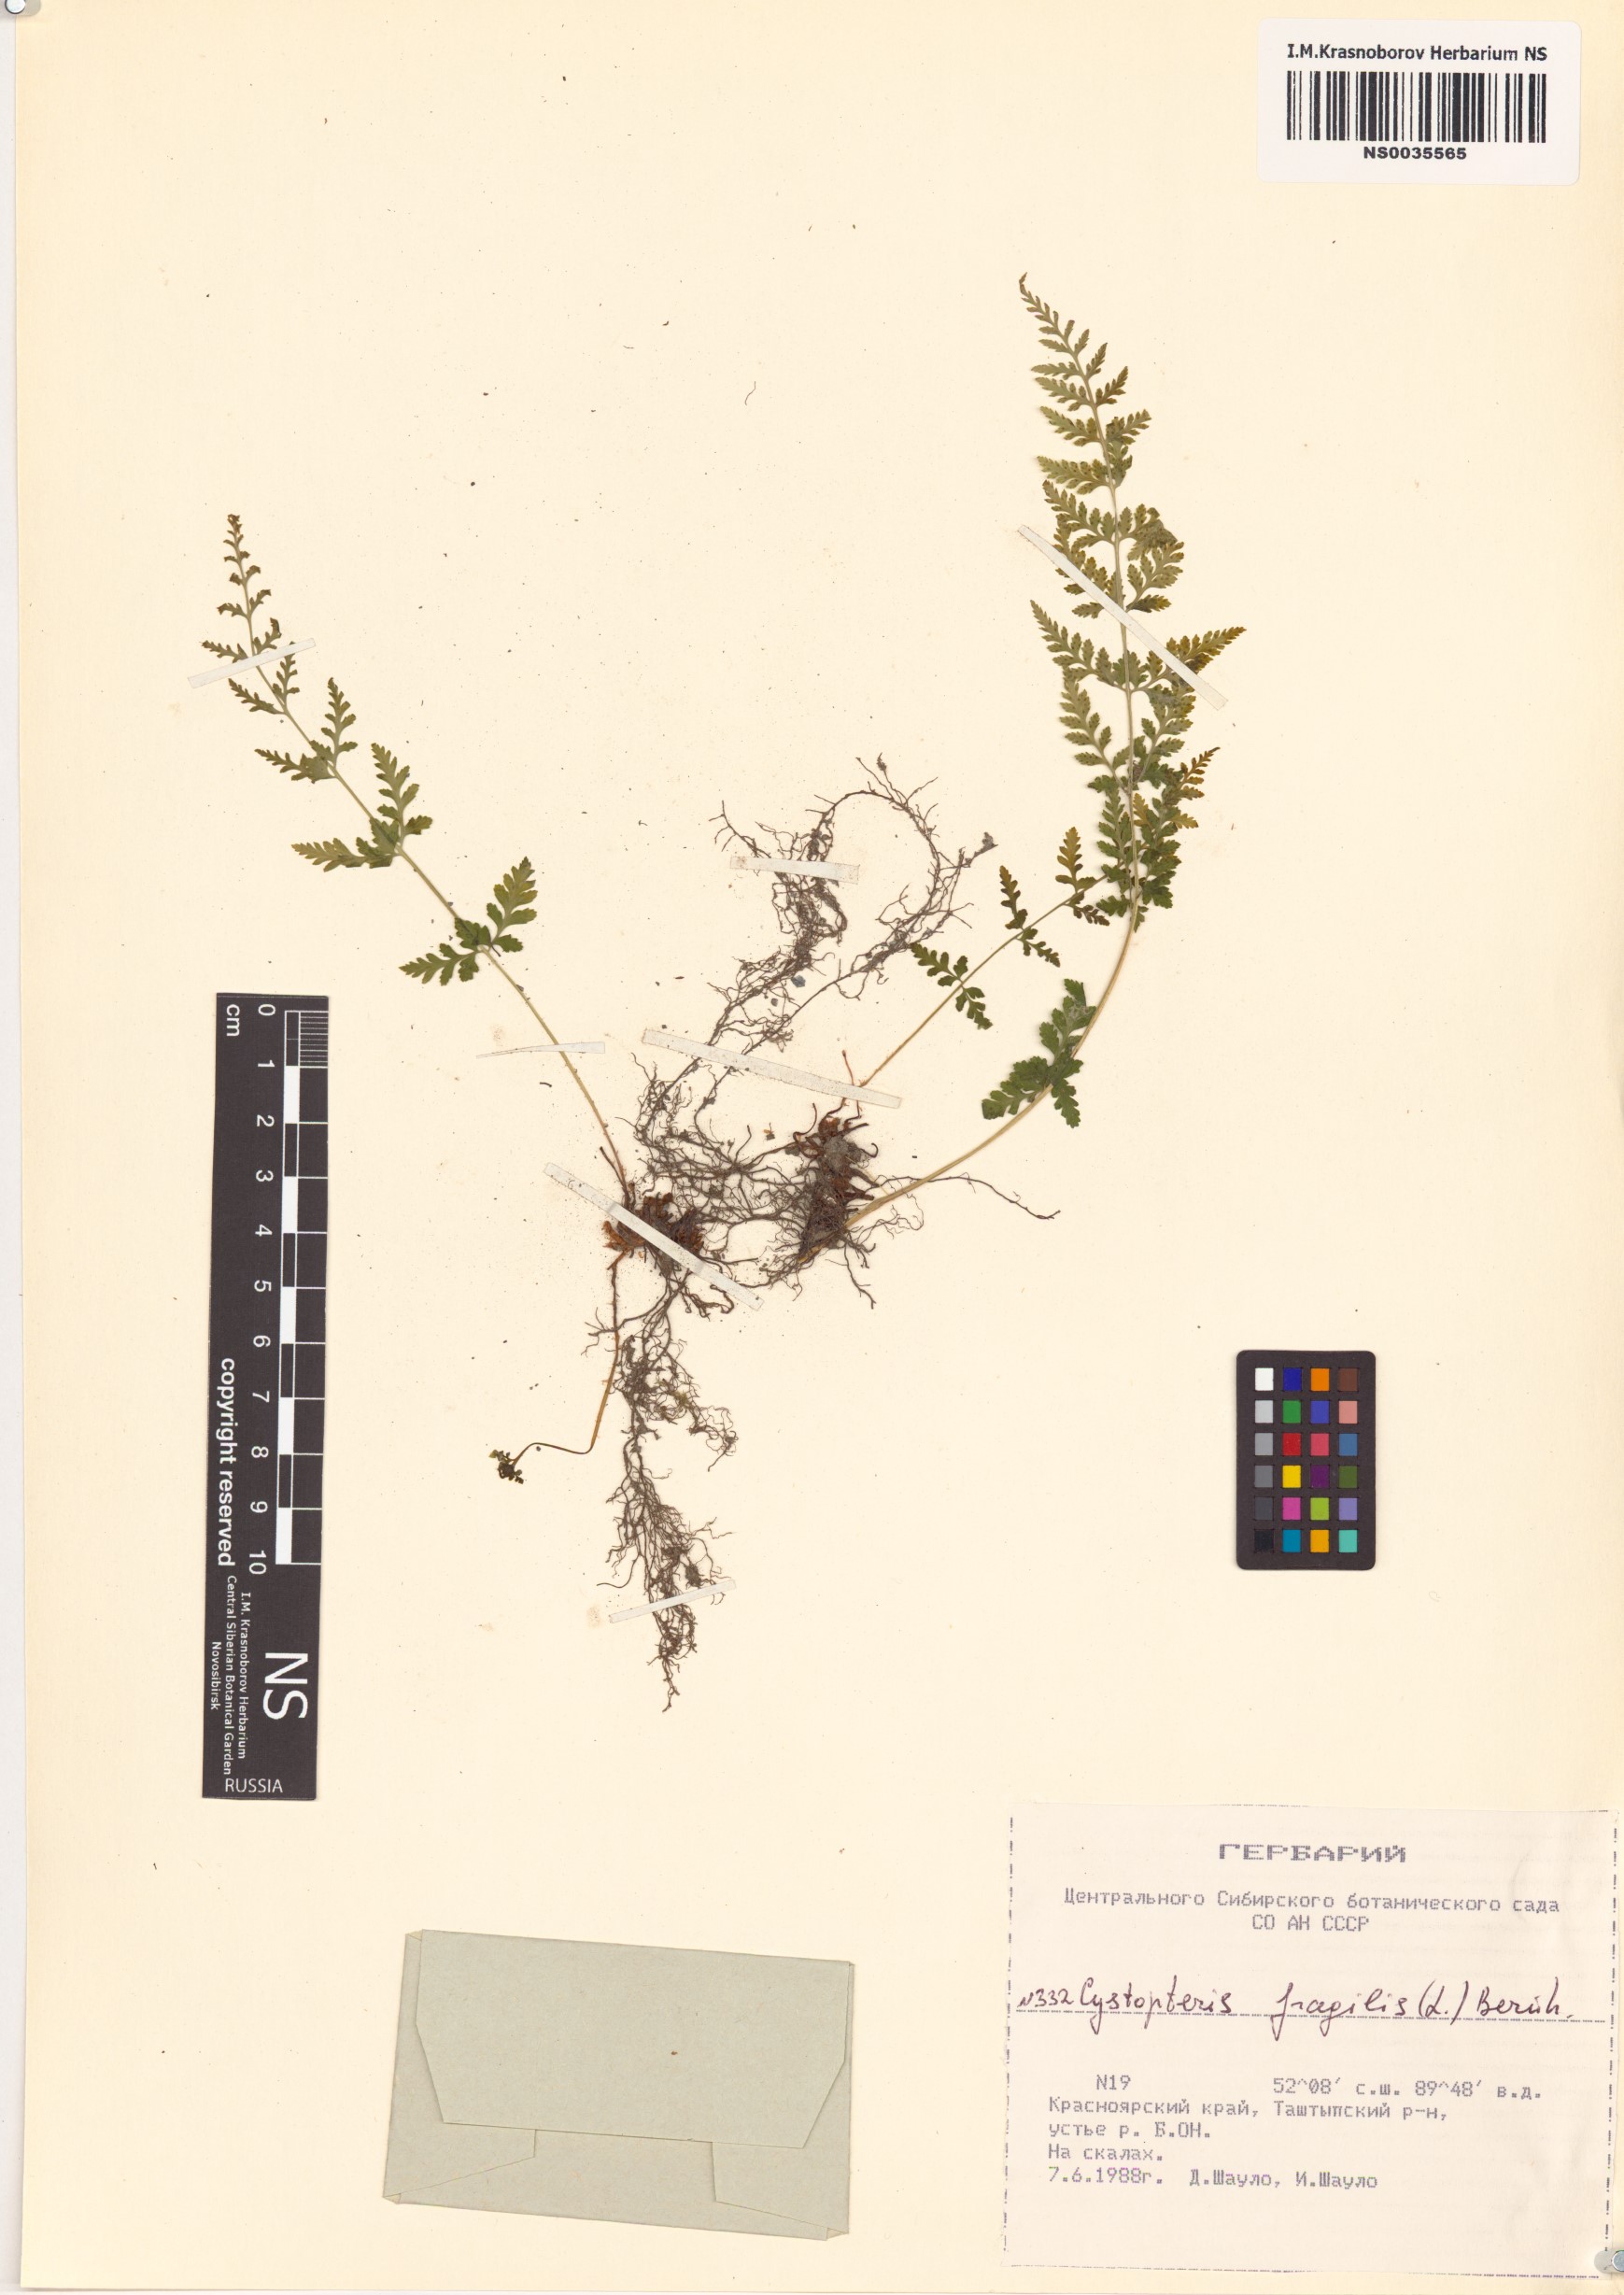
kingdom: Plantae
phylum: Tracheophyta
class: Polypodiopsida
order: Polypodiales
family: Cystopteridaceae
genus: Cystopteris
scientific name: Cystopteris fragilis
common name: Brittle bladder fern
